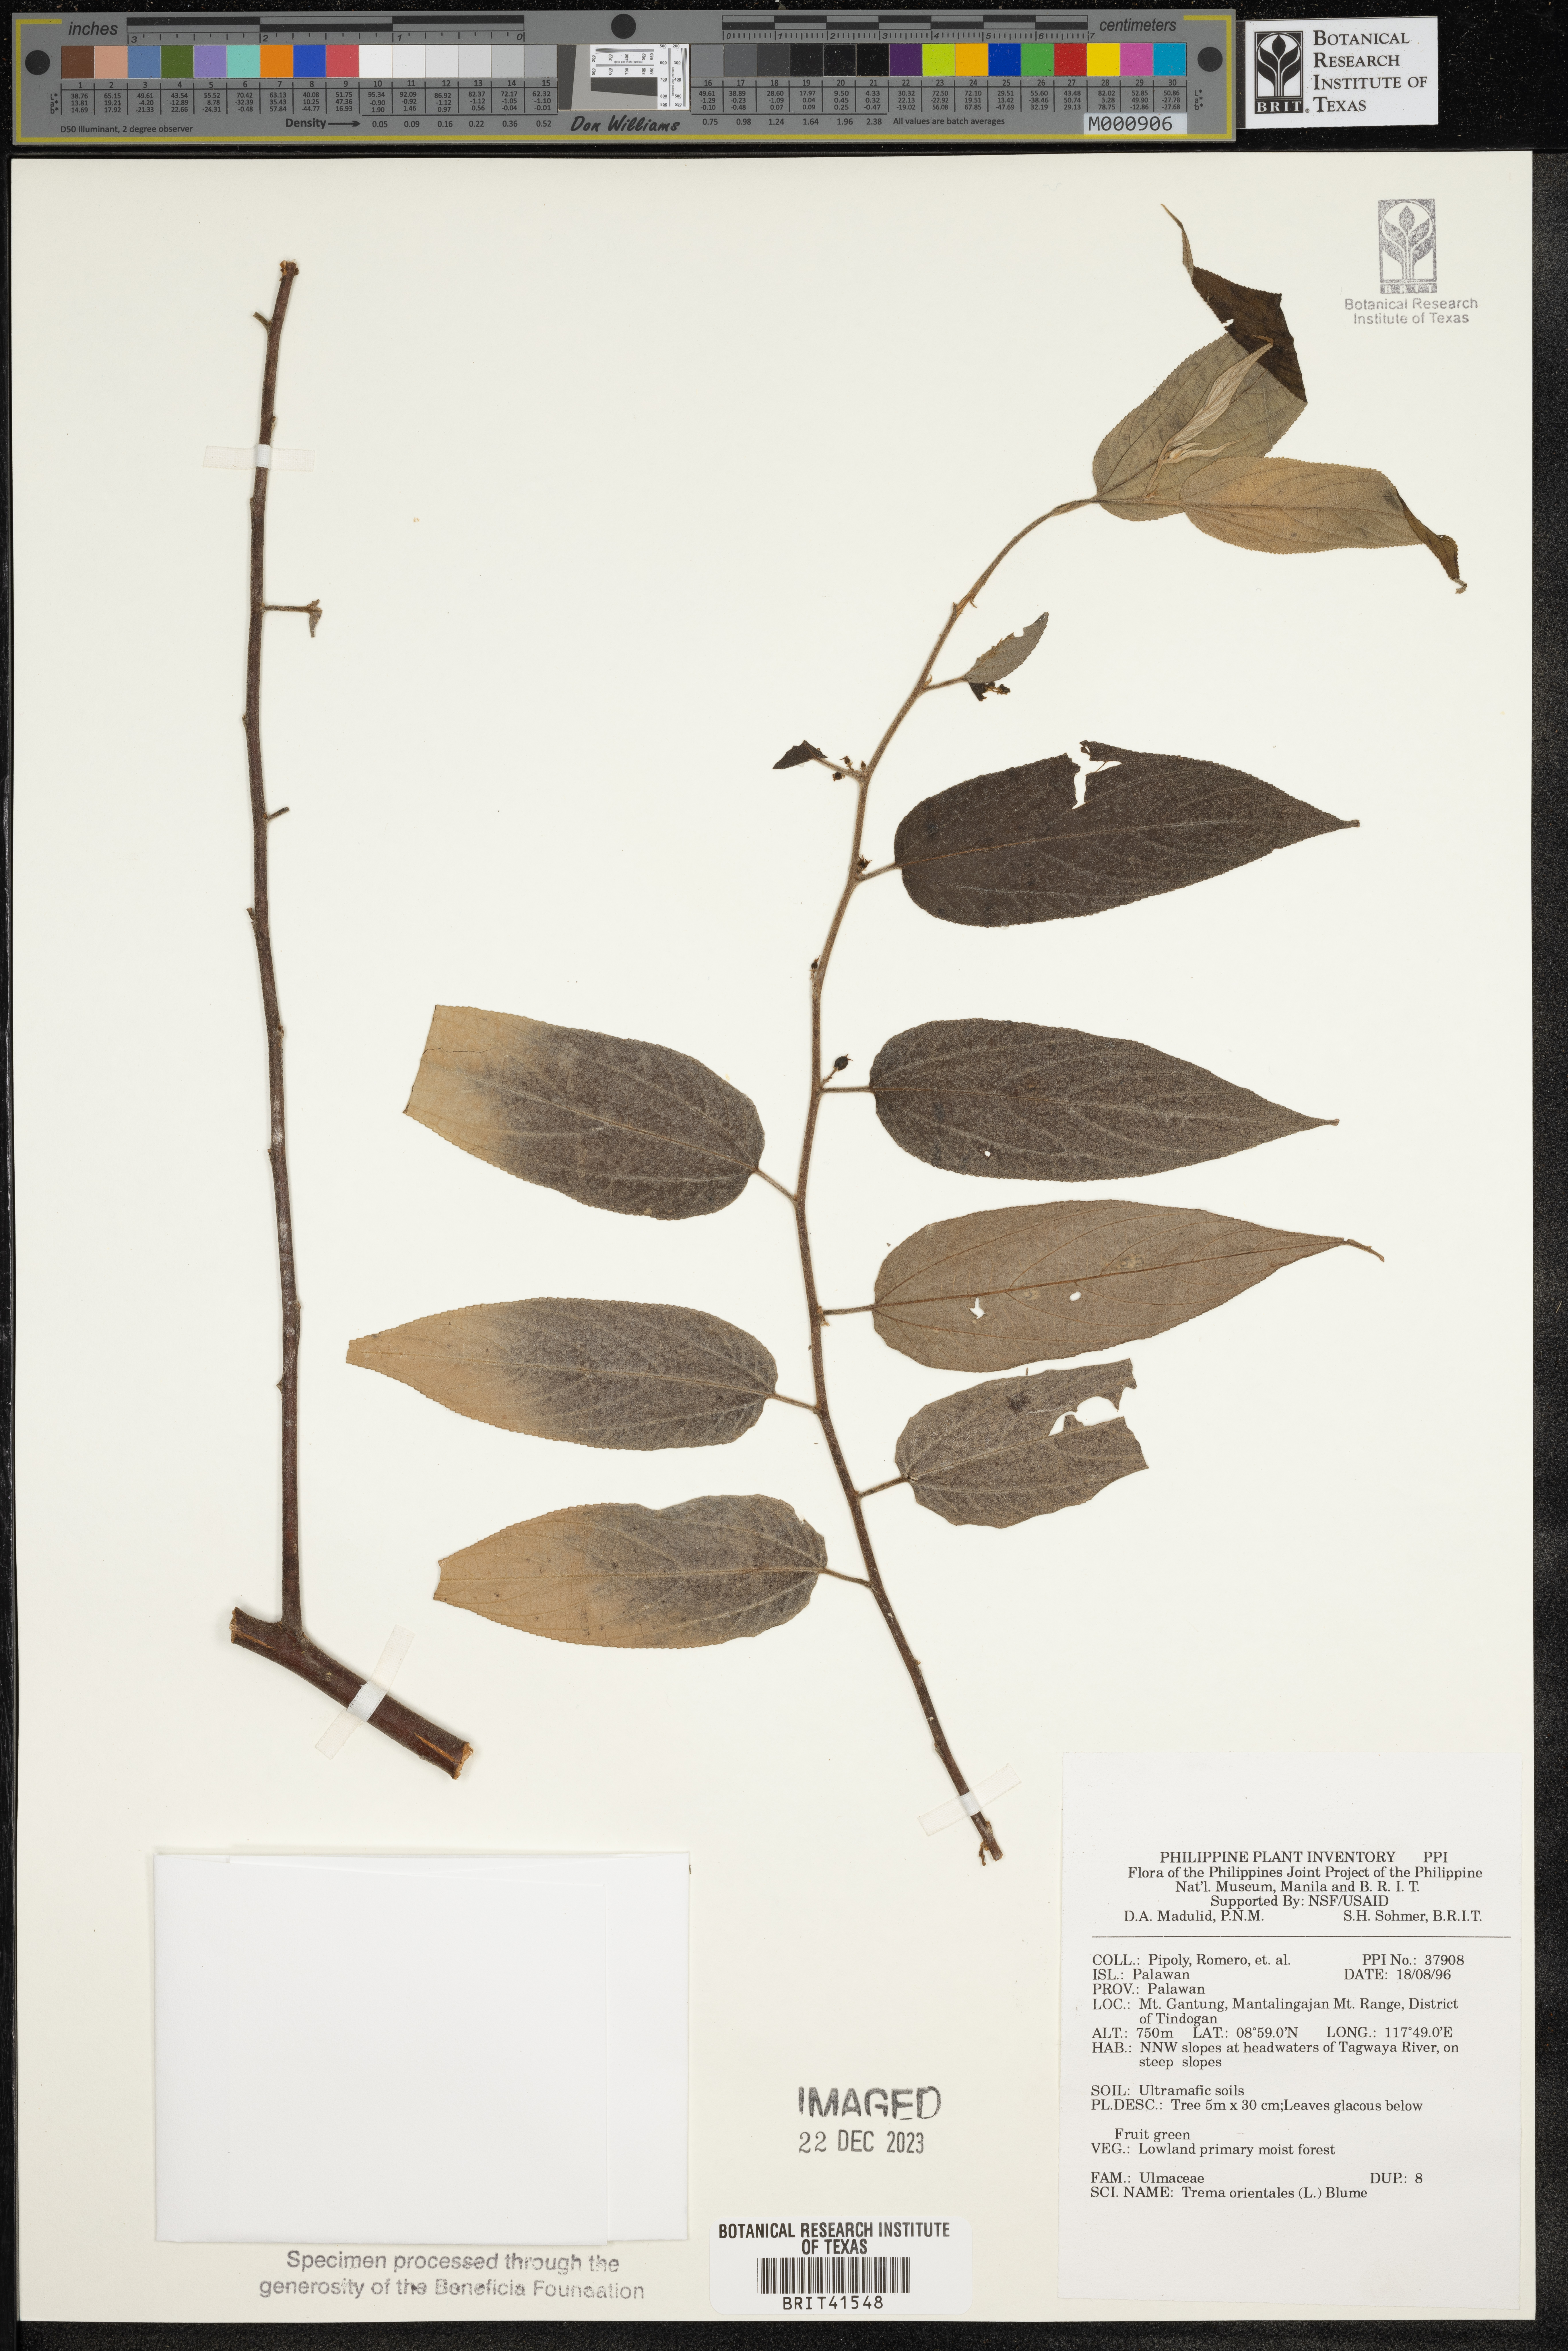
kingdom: Plantae
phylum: Tracheophyta
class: Magnoliopsida
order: Rosales
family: Cannabaceae
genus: Trema
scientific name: Trema orientale
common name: Indian charcoal tree
